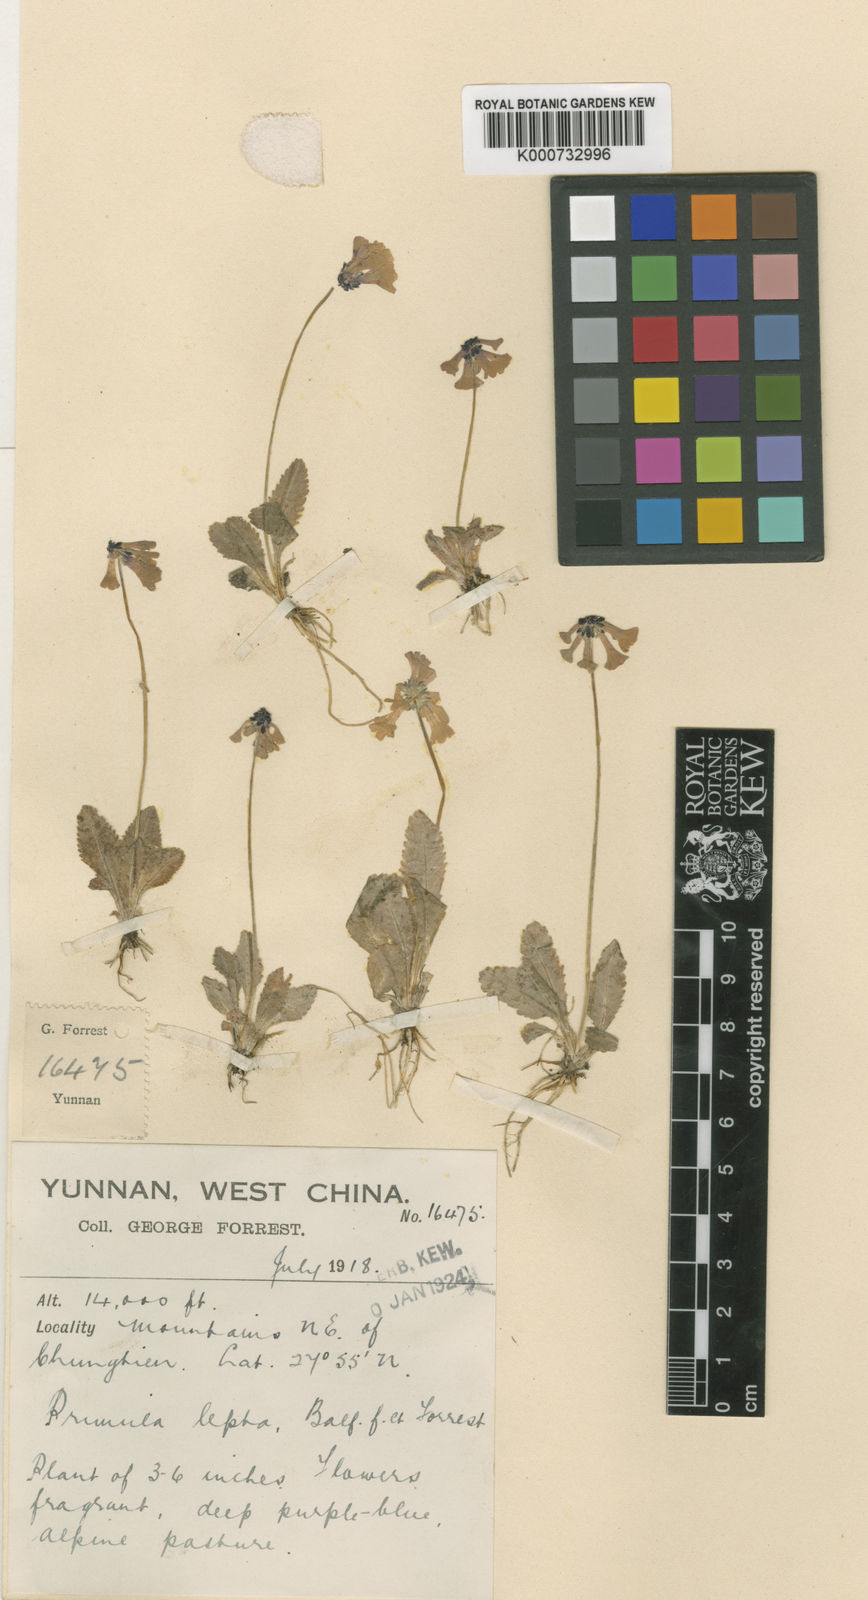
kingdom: Plantae
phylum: Tracheophyta
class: Magnoliopsida
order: Ericales
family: Primulaceae
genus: Primula
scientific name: Primula gracilenta
